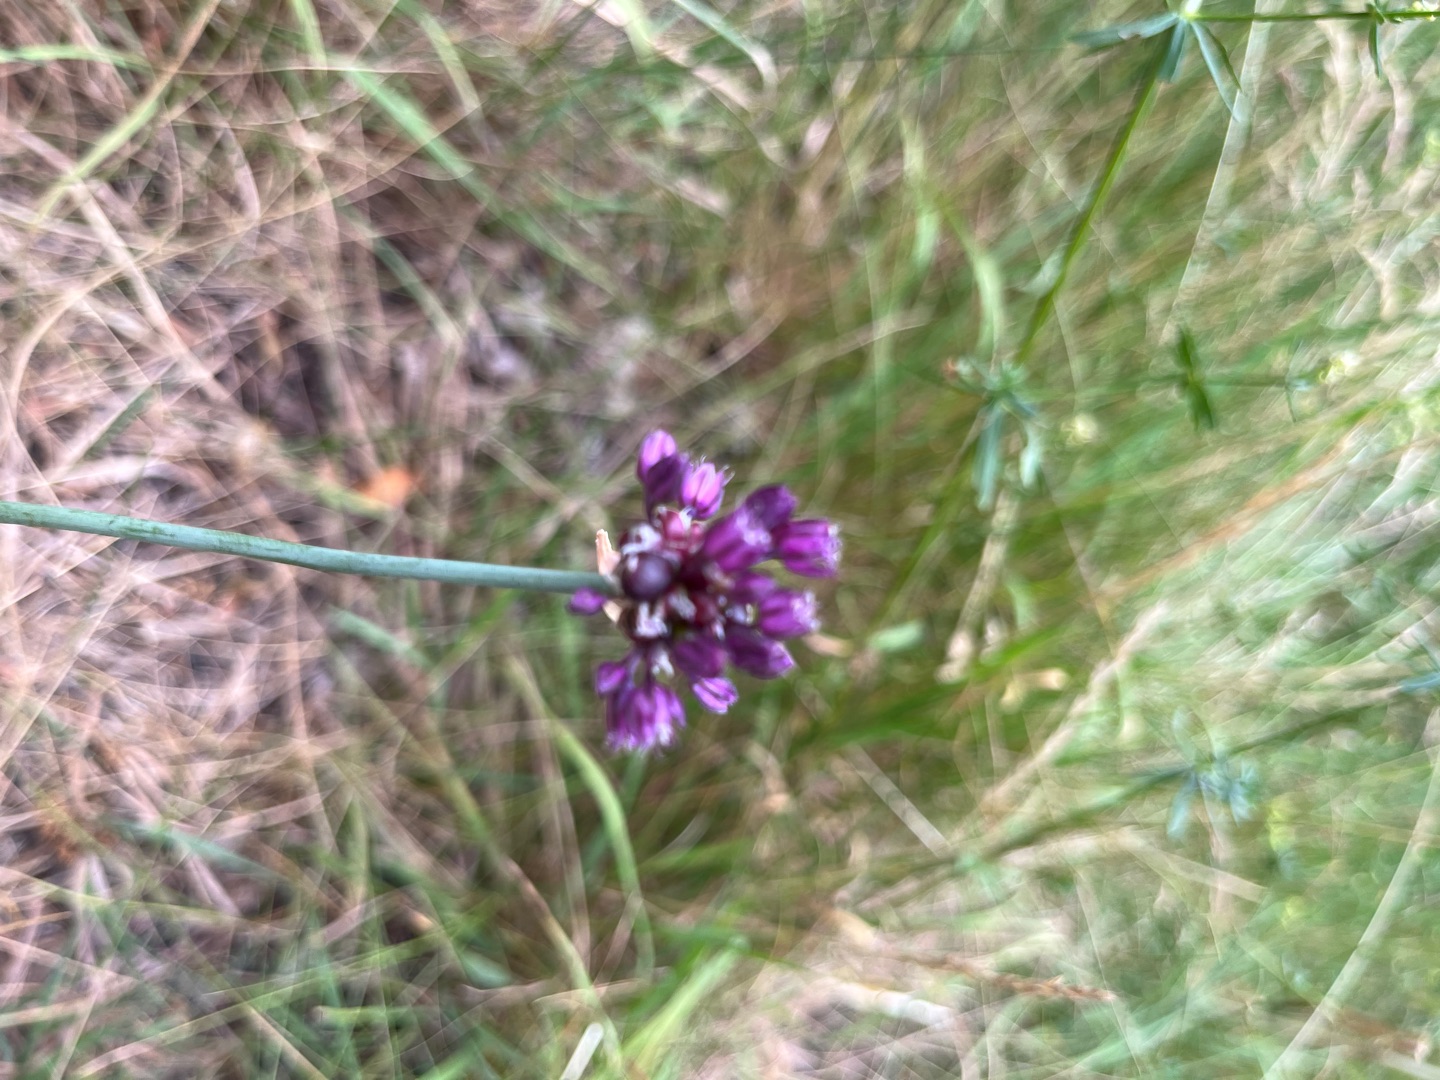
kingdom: Plantae
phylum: Tracheophyta
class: Liliopsida
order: Asparagales
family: Amaryllidaceae
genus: Allium
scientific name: Allium scorodoprasum
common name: Skov-løg
